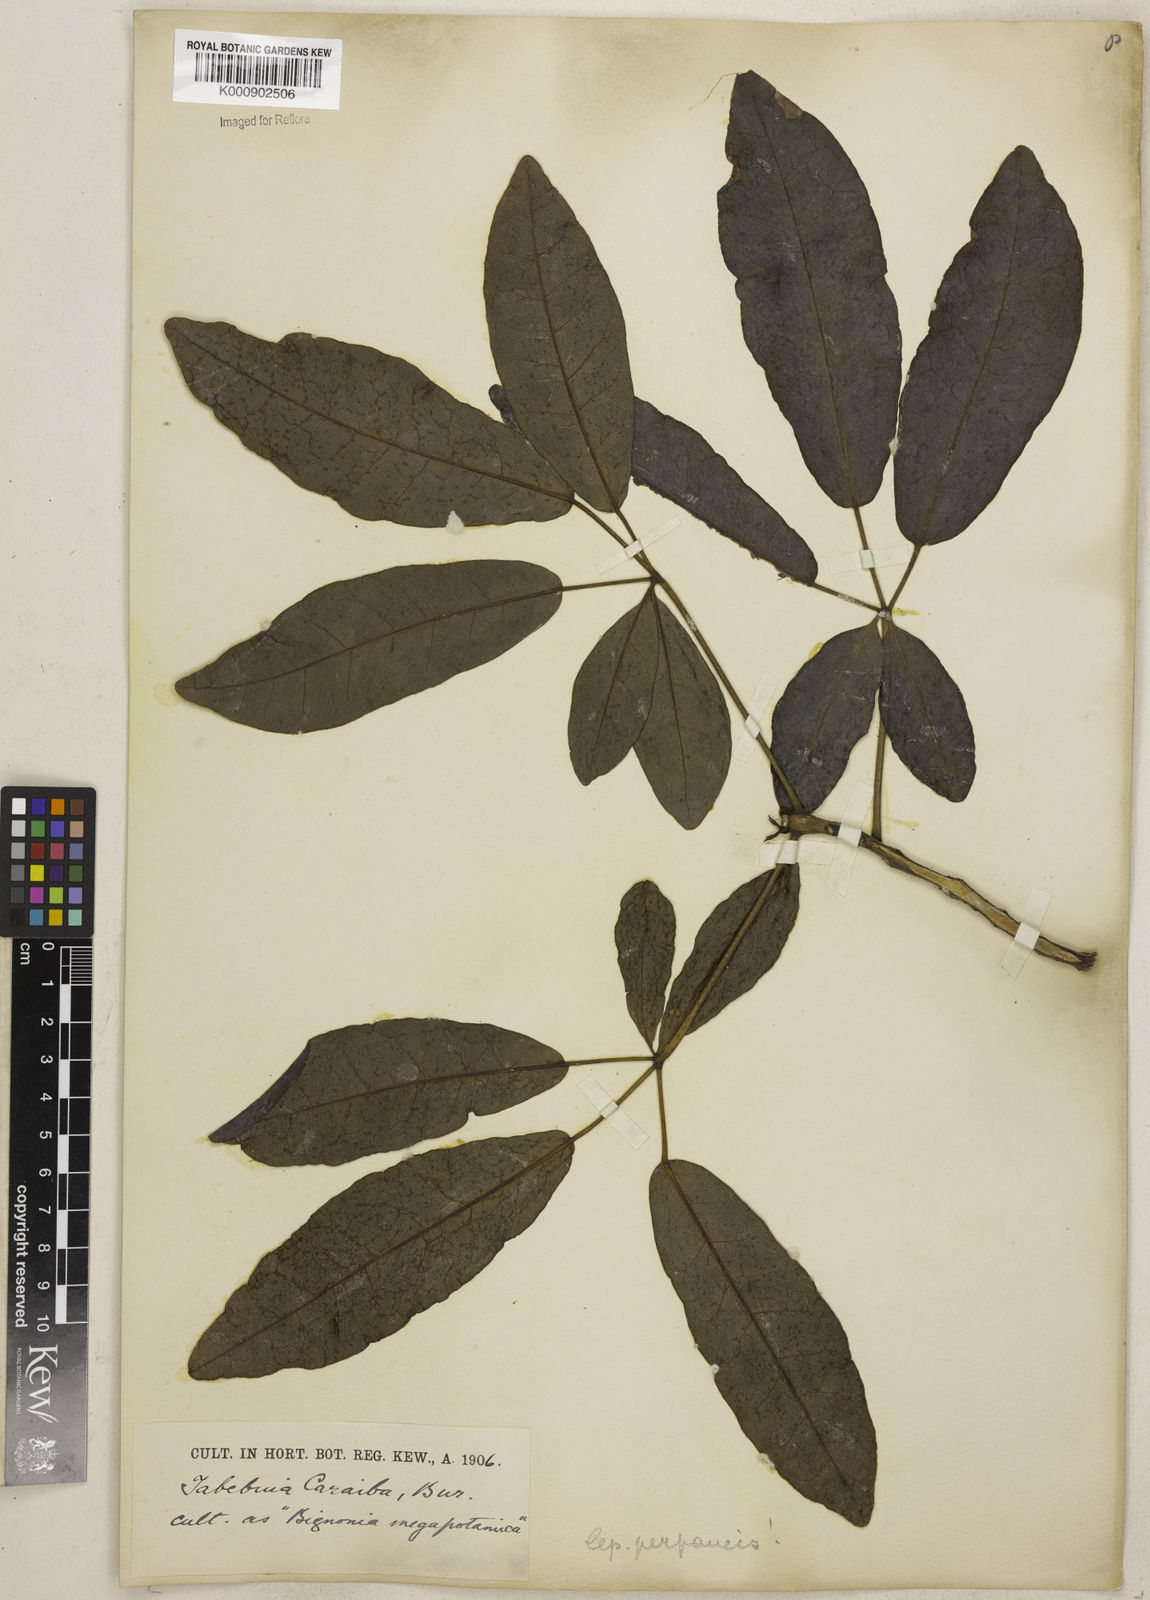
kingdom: Plantae
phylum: Tracheophyta
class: Magnoliopsida
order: Lamiales
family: Bignoniaceae
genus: Tabebuia
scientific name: Tabebuia aurea
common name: Caribbean trumpet-tree
